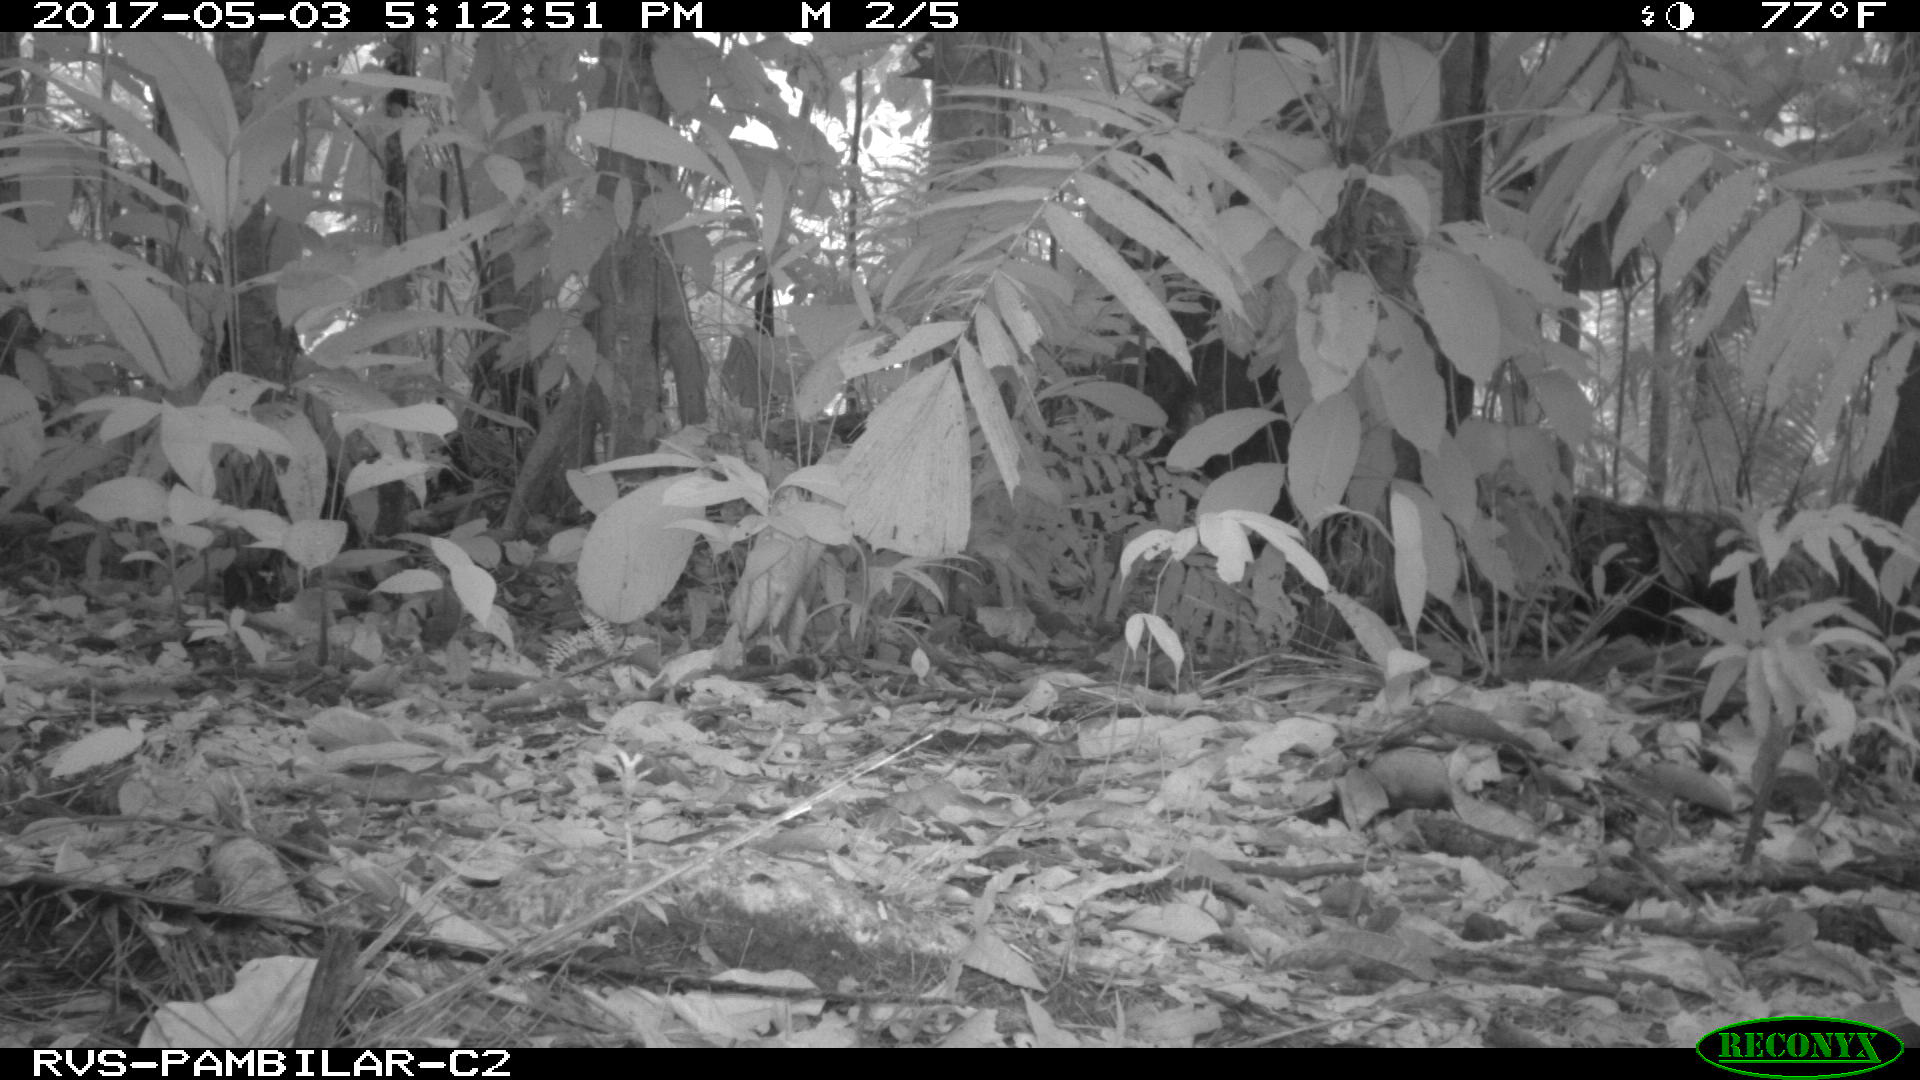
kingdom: Animalia
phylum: Chordata
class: Mammalia
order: Artiodactyla
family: Tayassuidae
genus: Tayassu
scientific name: Tayassu pecari
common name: White-lipped peccary
